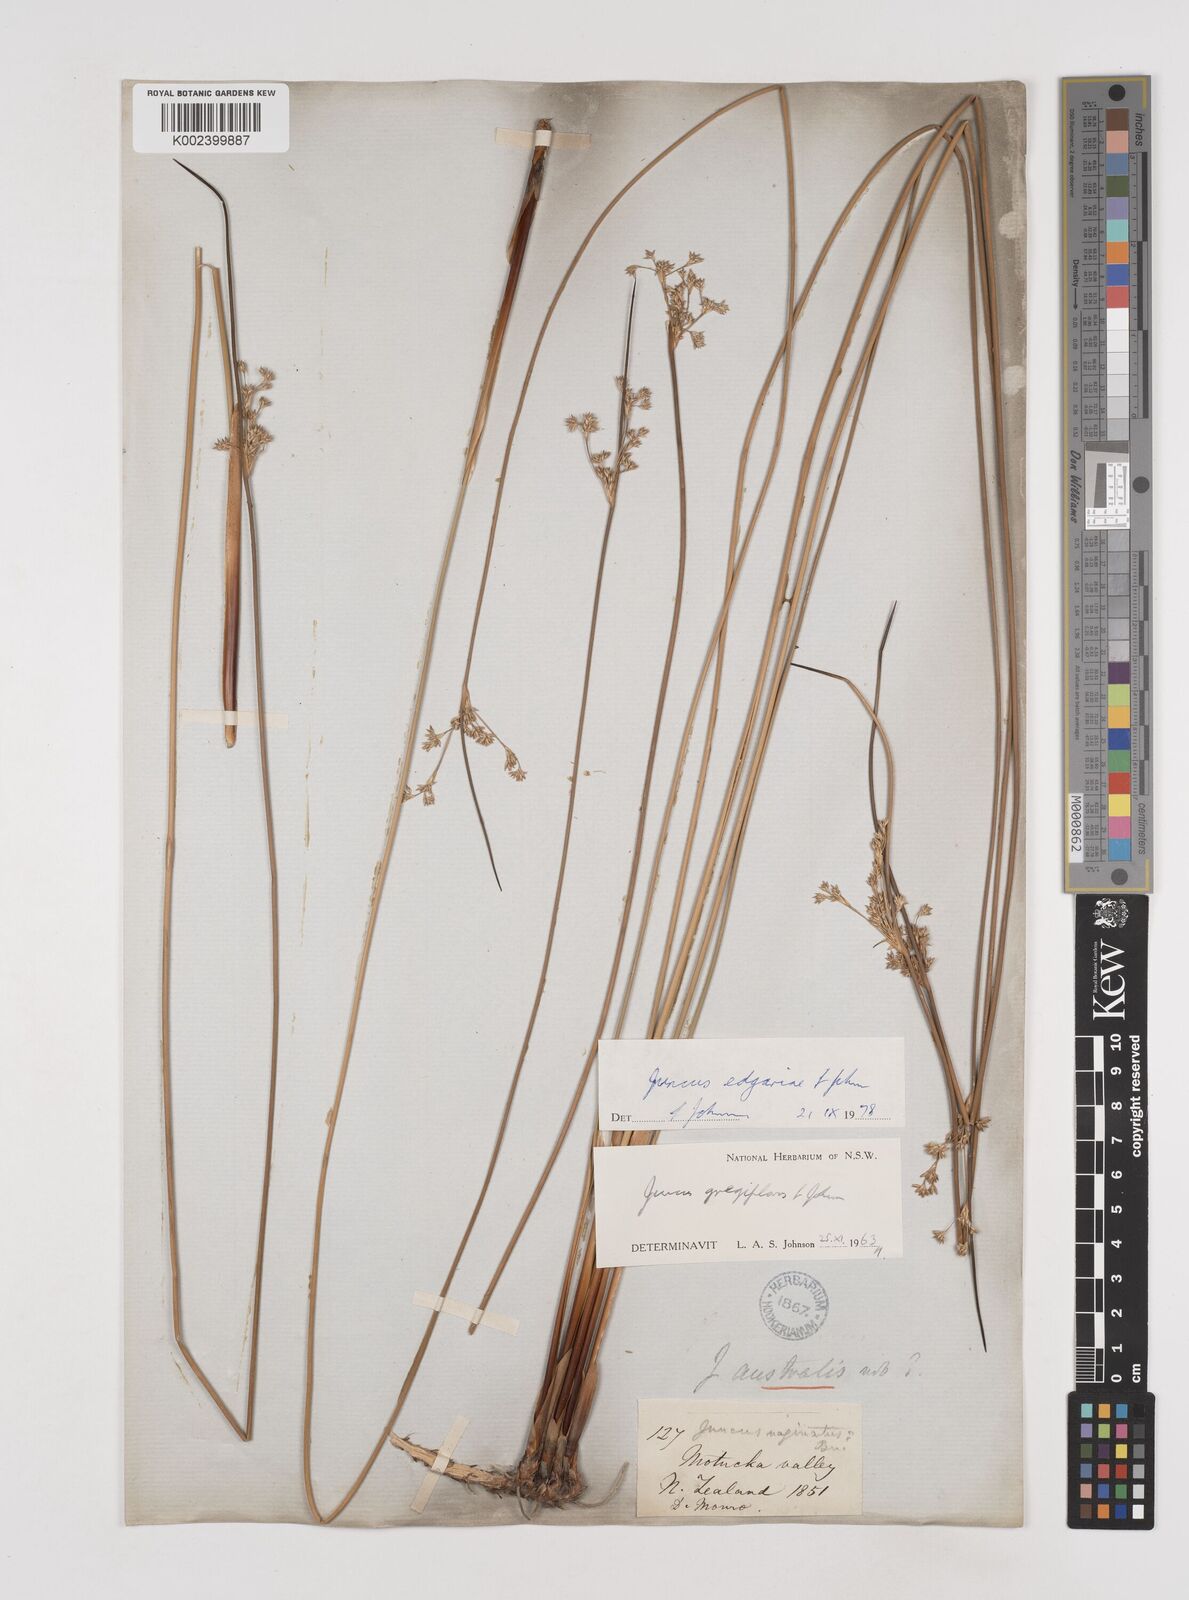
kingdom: Plantae
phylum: Tracheophyta
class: Liliopsida
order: Poales
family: Juncaceae
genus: Juncus
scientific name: Juncus gregiflorus
